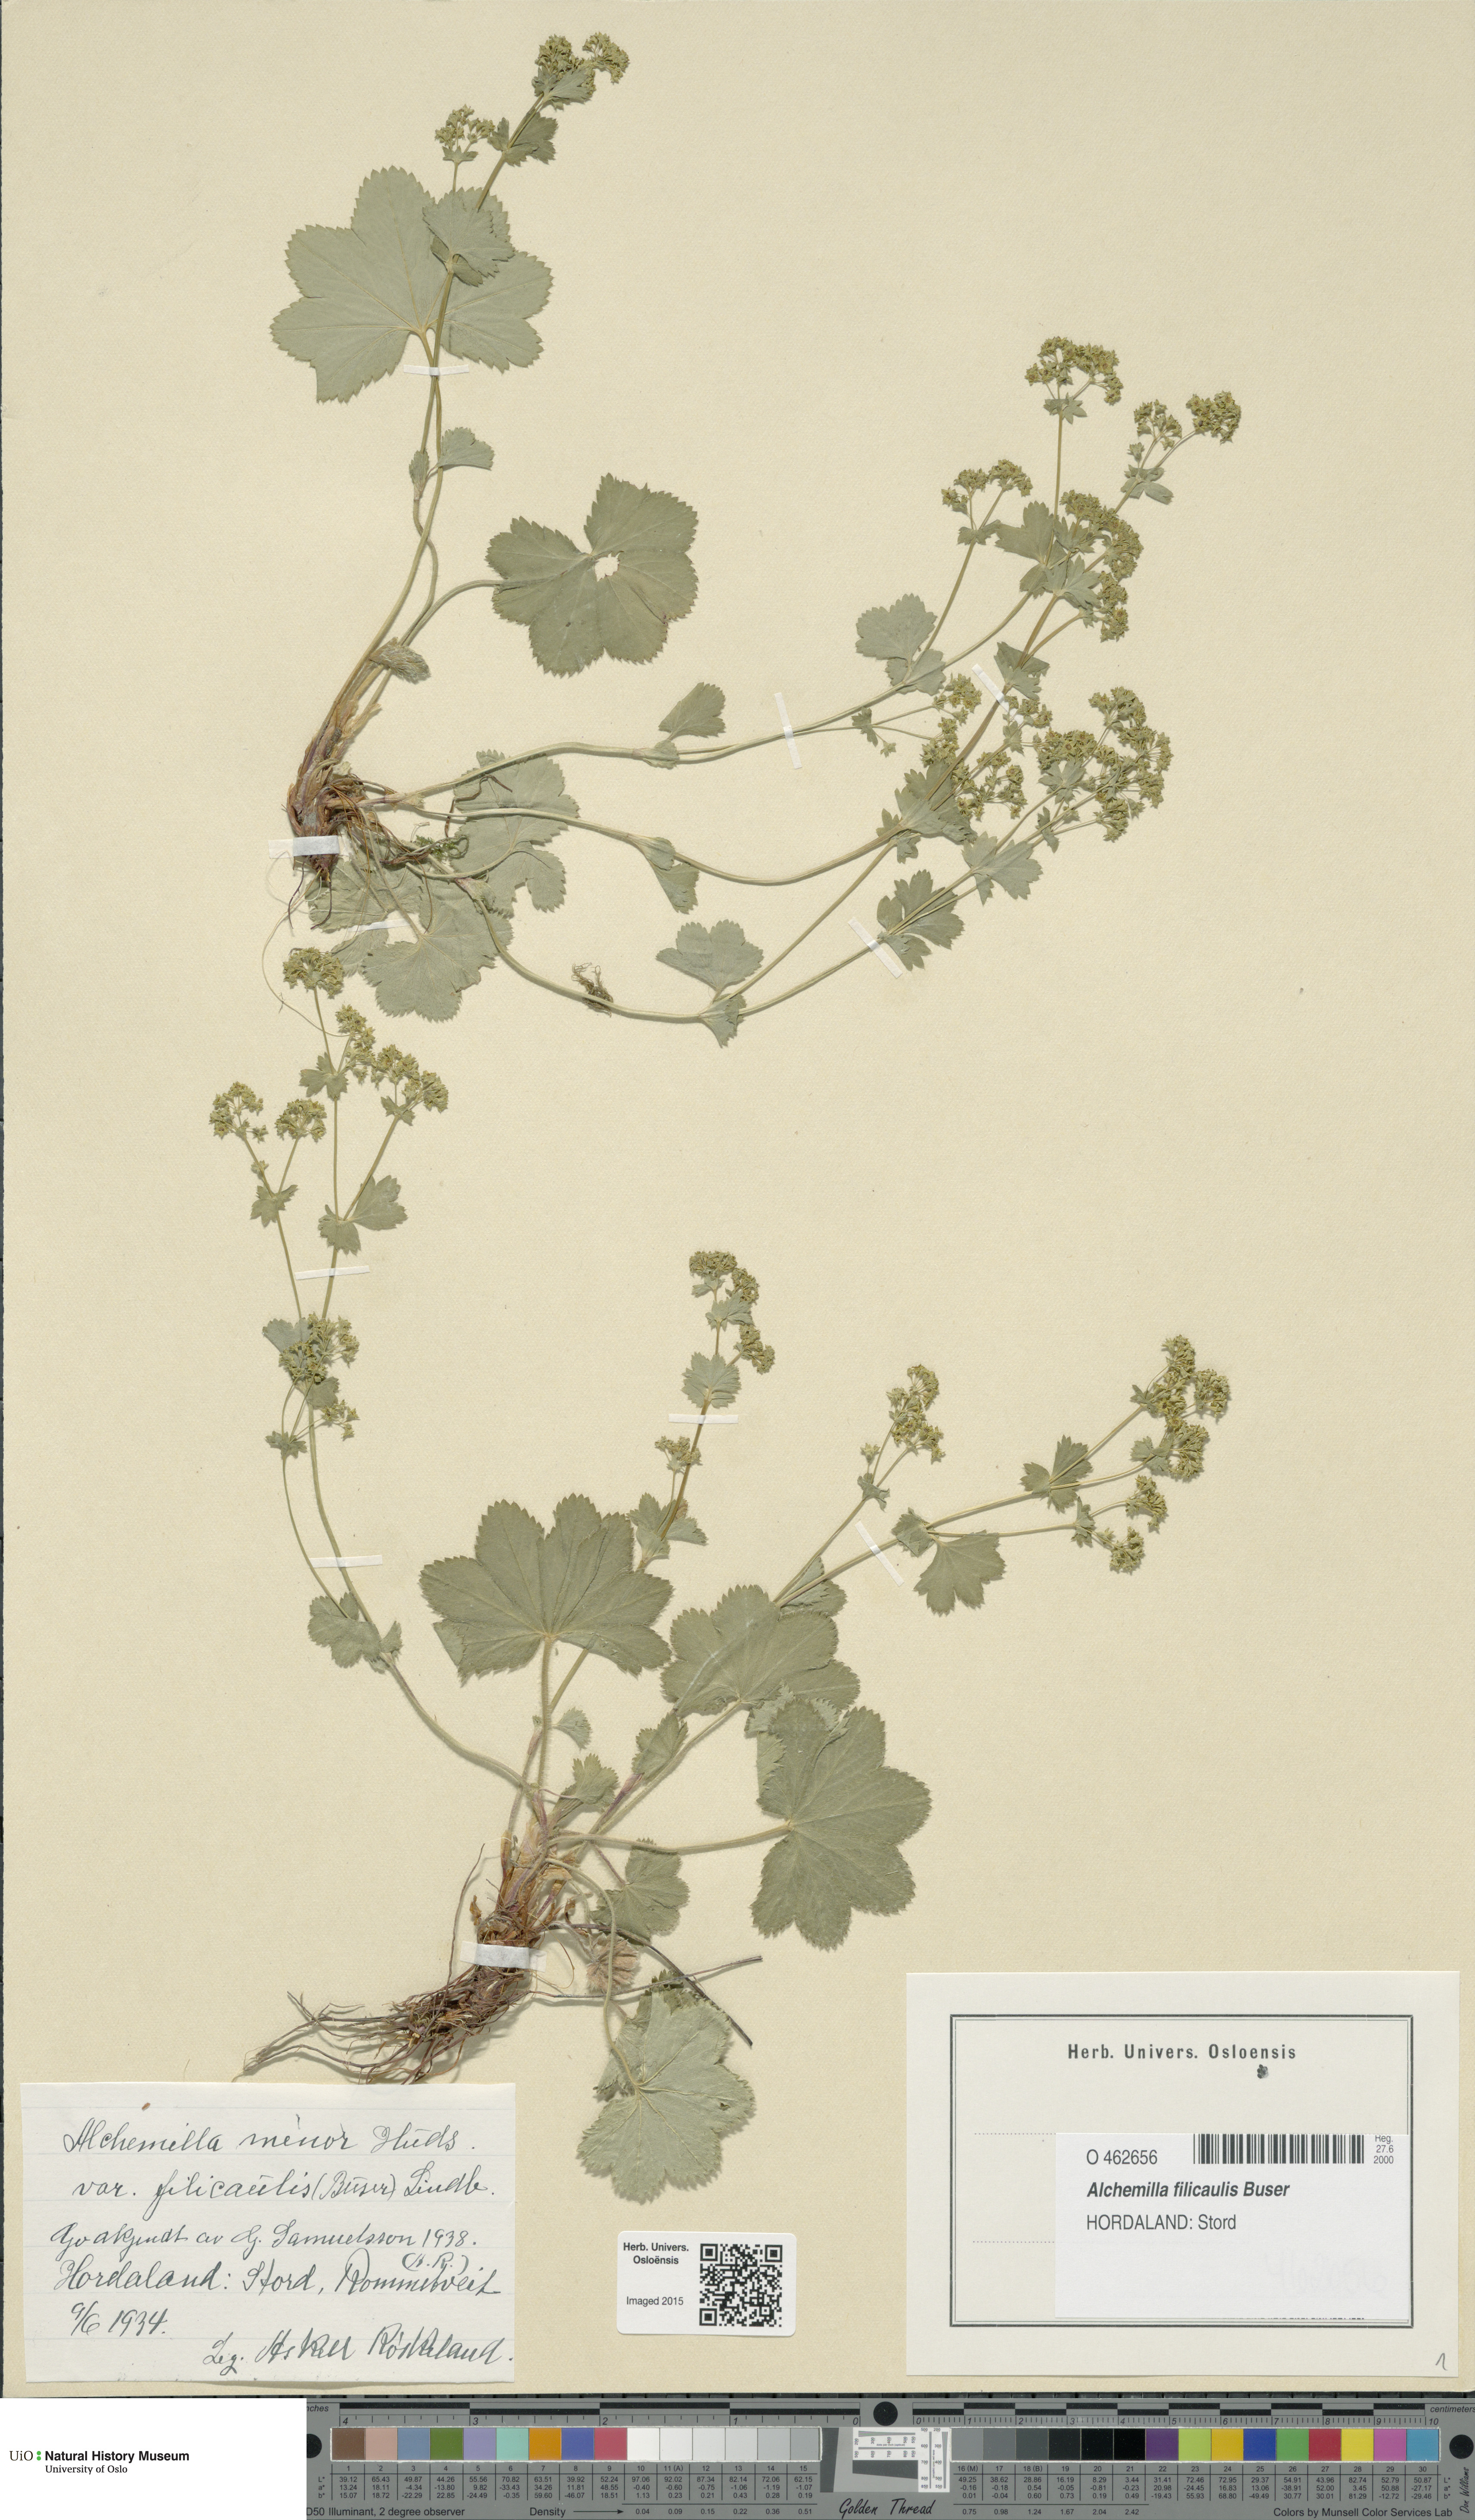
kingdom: Plantae
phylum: Tracheophyta
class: Magnoliopsida
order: Rosales
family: Rosaceae
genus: Alchemilla
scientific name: Alchemilla filicaulis
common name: Hairy lady's-mantle
